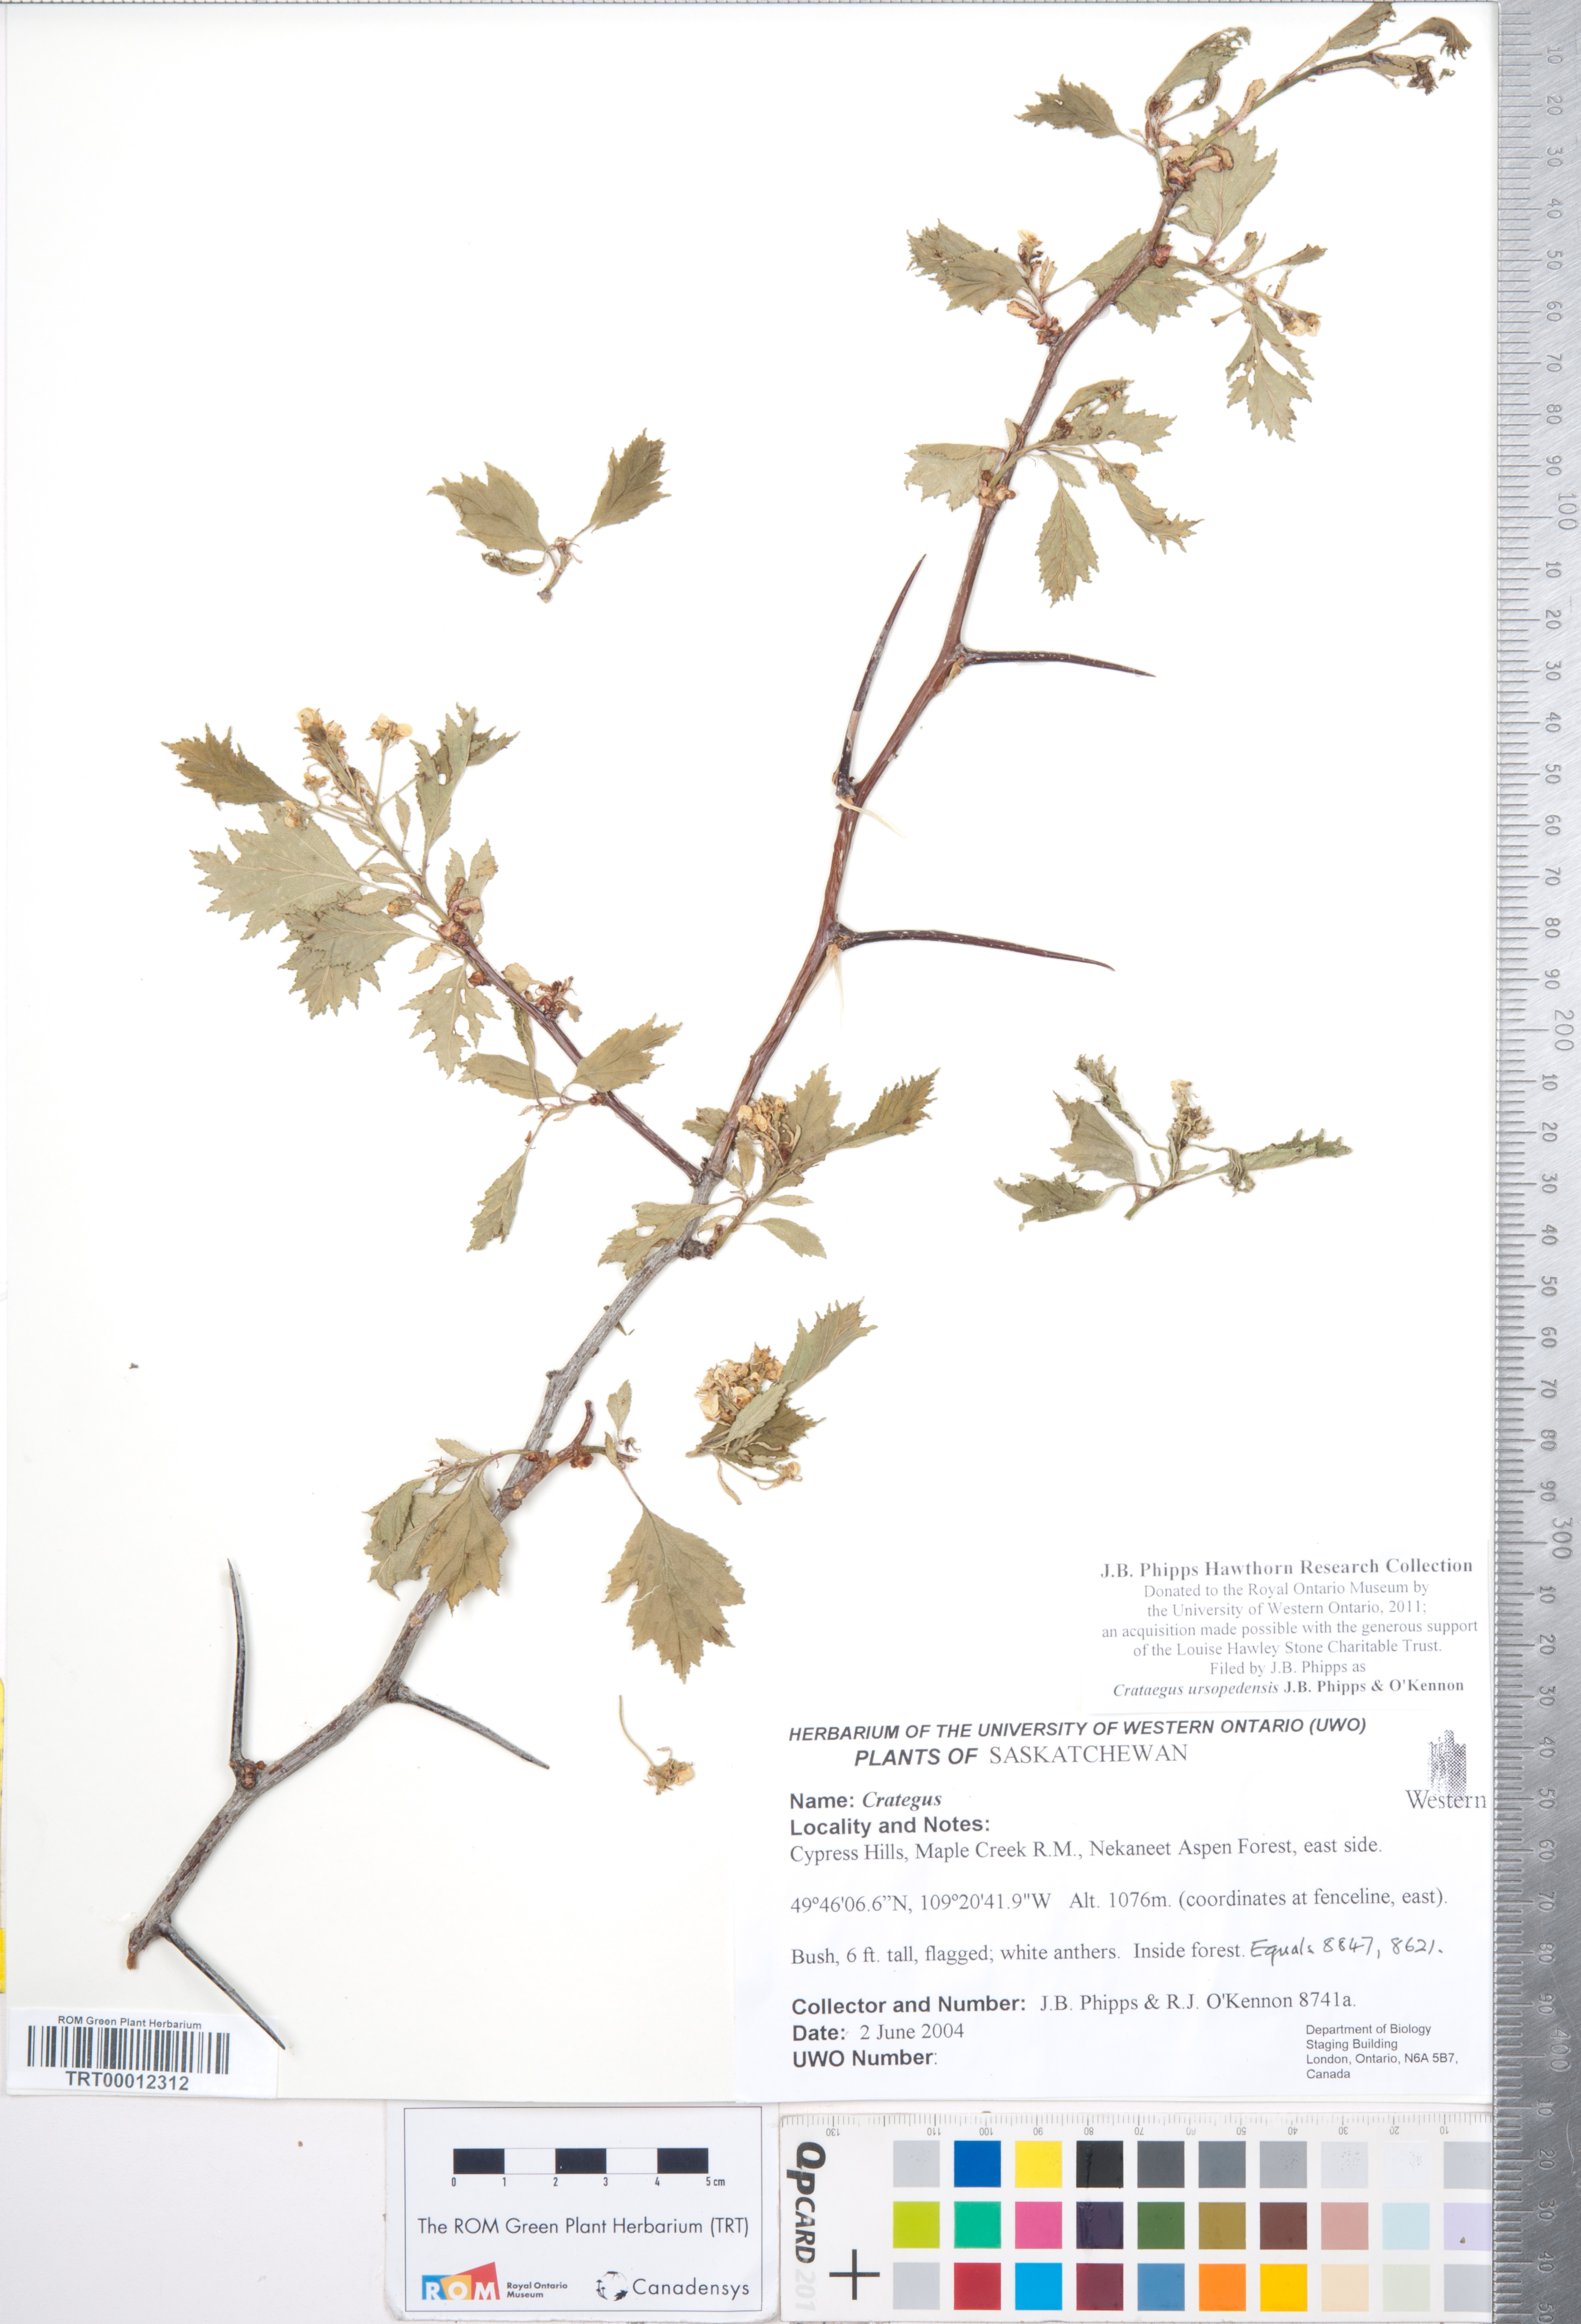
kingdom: Plantae
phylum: Tracheophyta
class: Magnoliopsida
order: Rosales
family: Rosaceae
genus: Crataegus
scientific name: Crataegus ursopedensis
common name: Bears paw hawthorn
